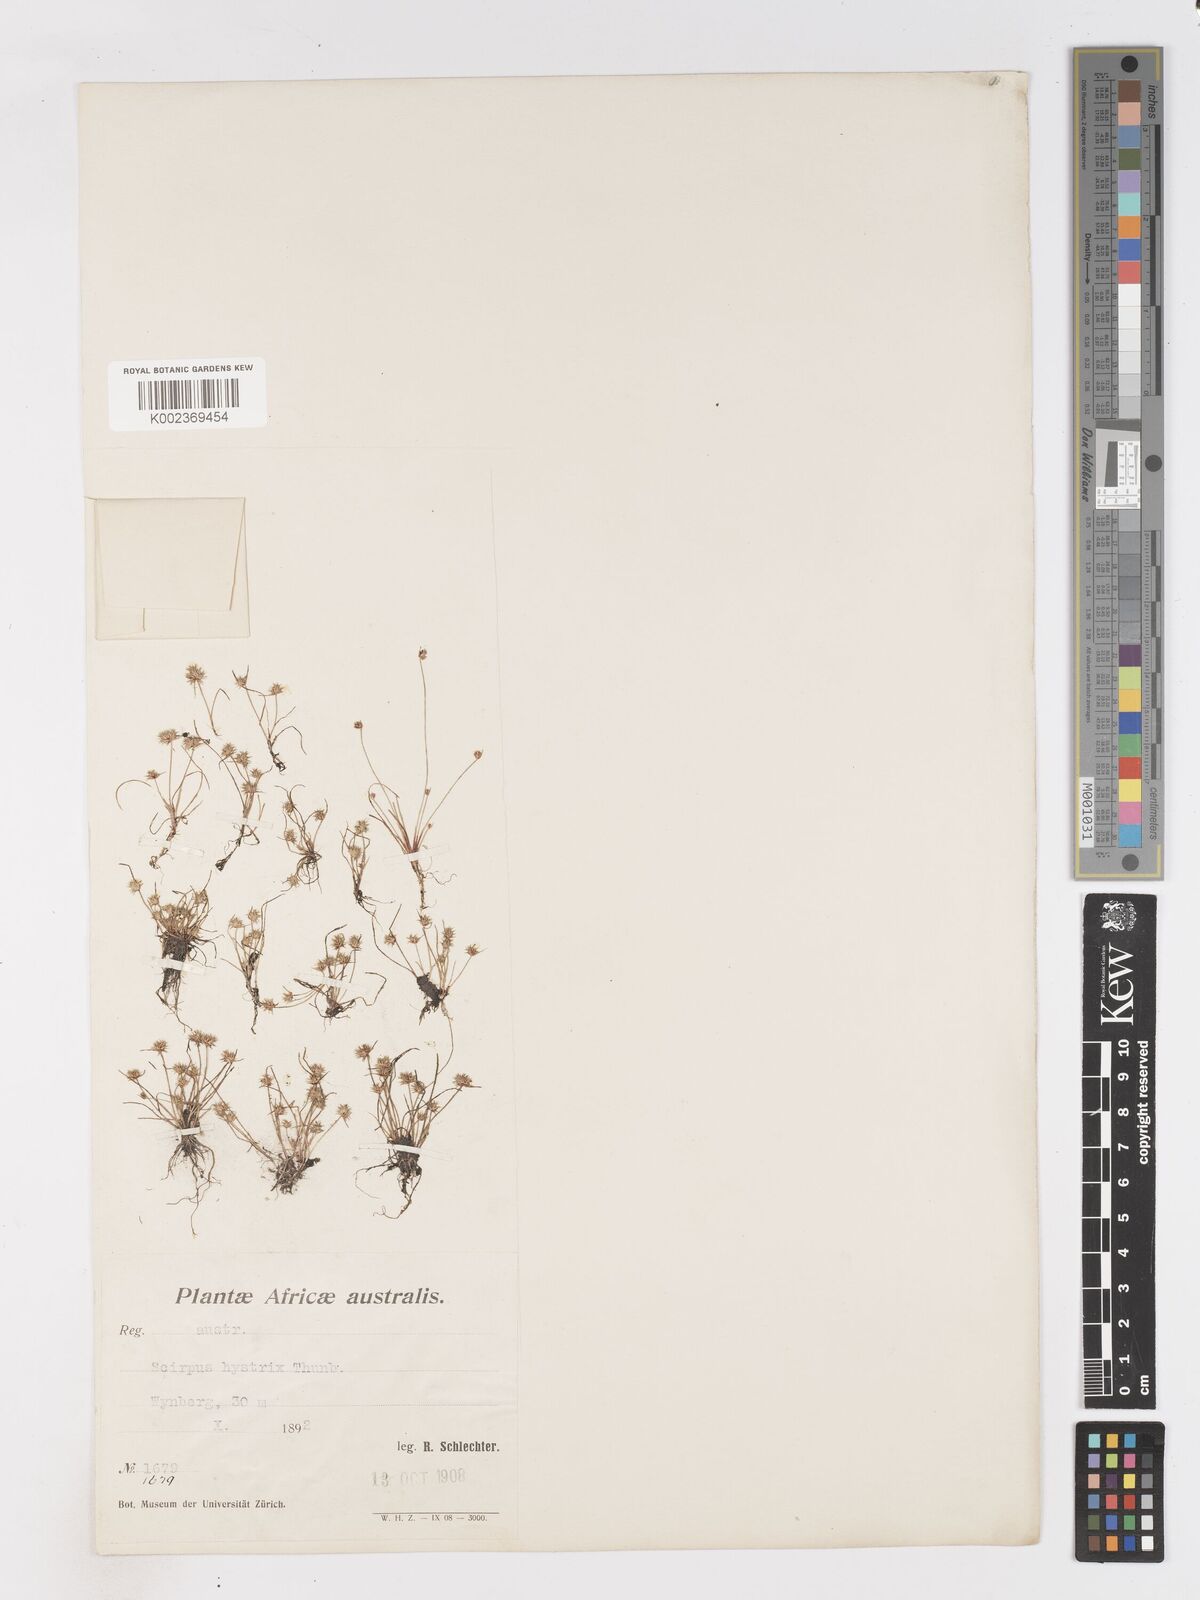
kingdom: Plantae
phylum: Tracheophyta
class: Liliopsida
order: Poales
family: Cyperaceae
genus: Isolepis
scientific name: Isolepis hystrix
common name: Bottlebrush bulrush
